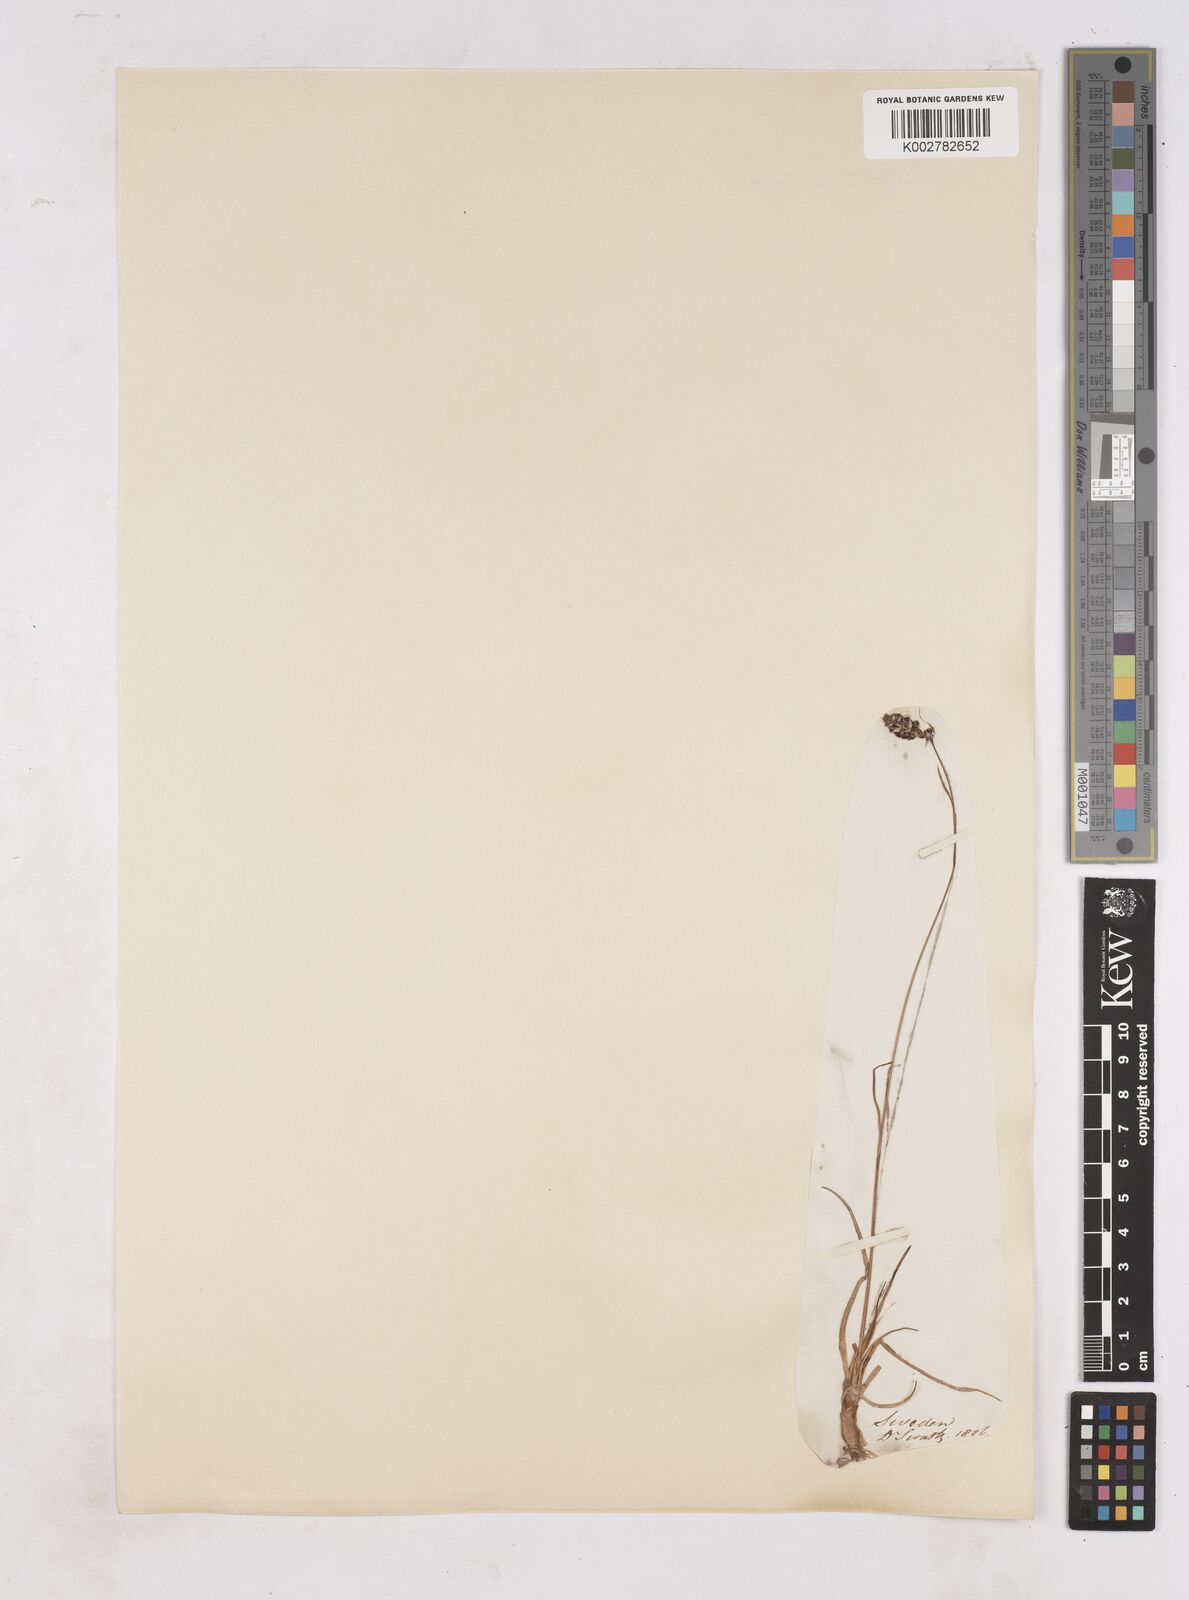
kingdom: Plantae
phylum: Tracheophyta
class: Liliopsida
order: Poales
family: Juncaceae
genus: Luzula
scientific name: Luzula spicata
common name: Spiked wood-rush
